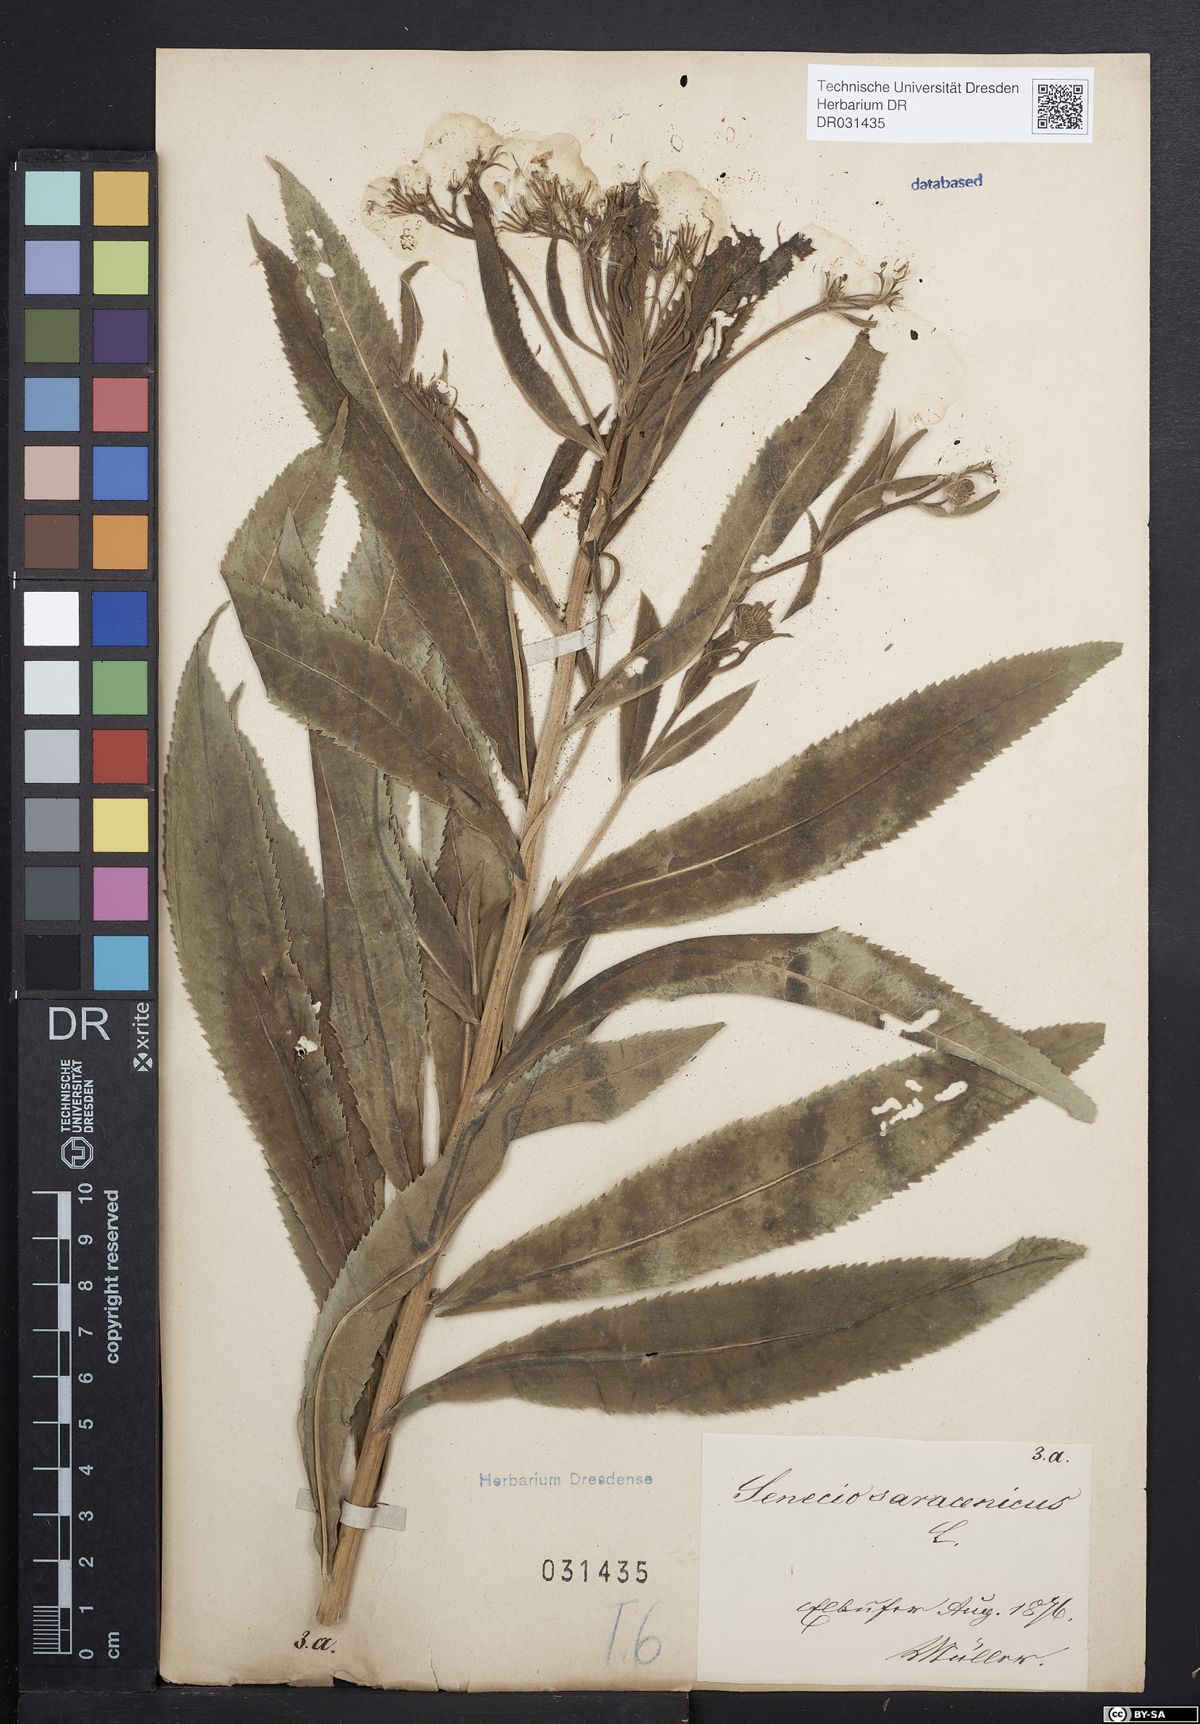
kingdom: Plantae
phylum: Tracheophyta
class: Magnoliopsida
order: Asterales
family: Asteraceae
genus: Senecio
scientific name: Senecio saracenicus
